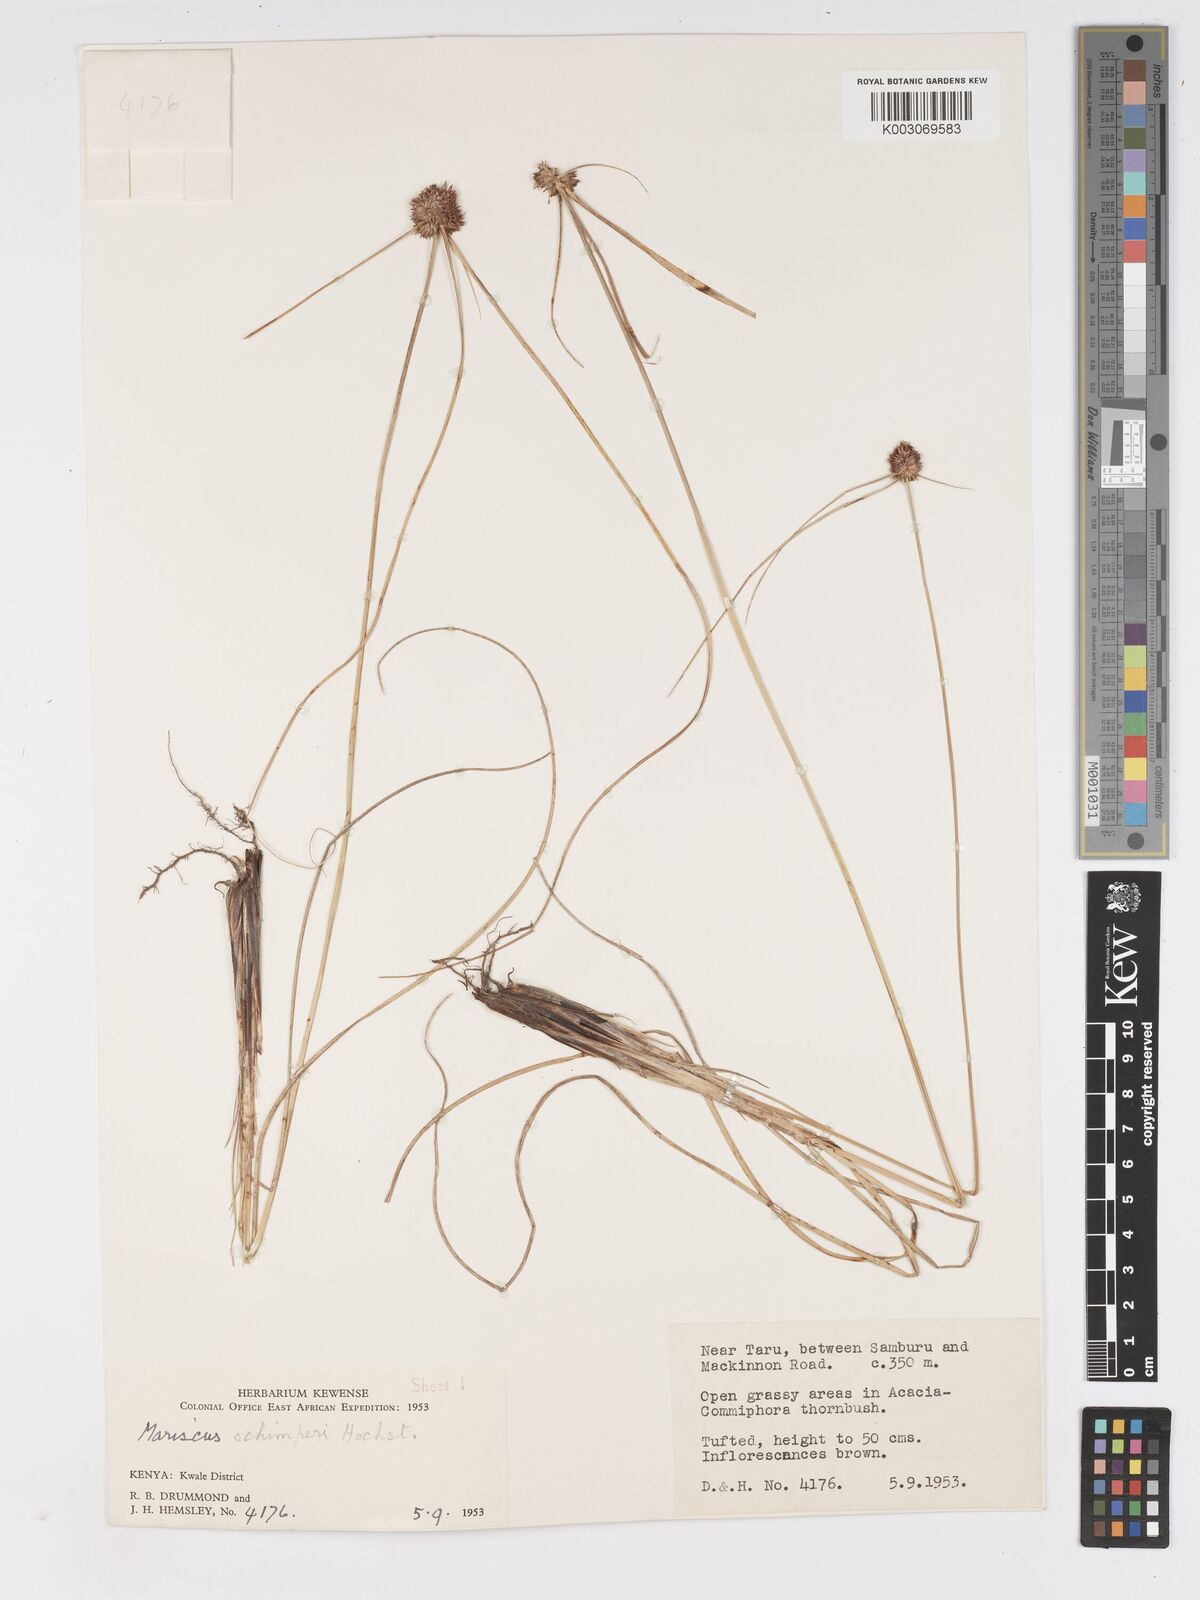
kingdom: Plantae
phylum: Tracheophyta
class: Liliopsida
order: Poales
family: Cyperaceae
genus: Cyperus
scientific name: Cyperus cruentus
